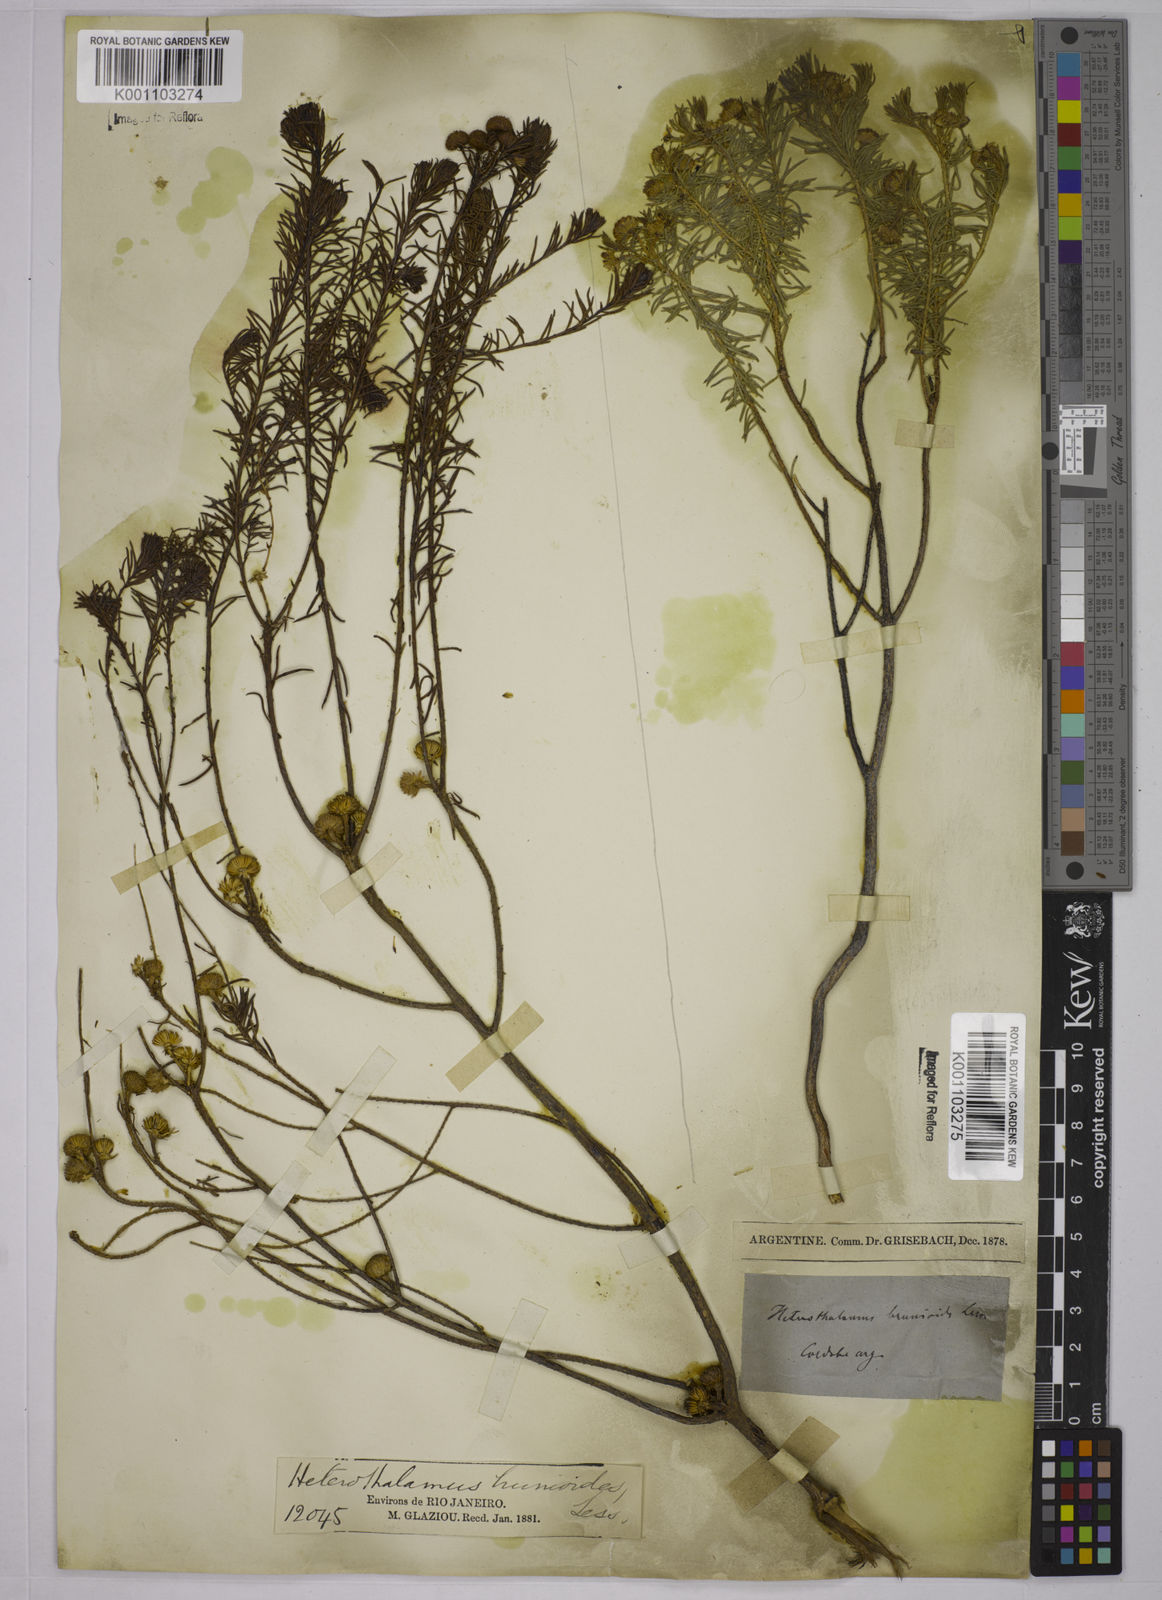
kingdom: Plantae
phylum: Tracheophyta
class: Magnoliopsida
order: Asterales
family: Asteraceae
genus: Baccharis
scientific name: Baccharis aliena
